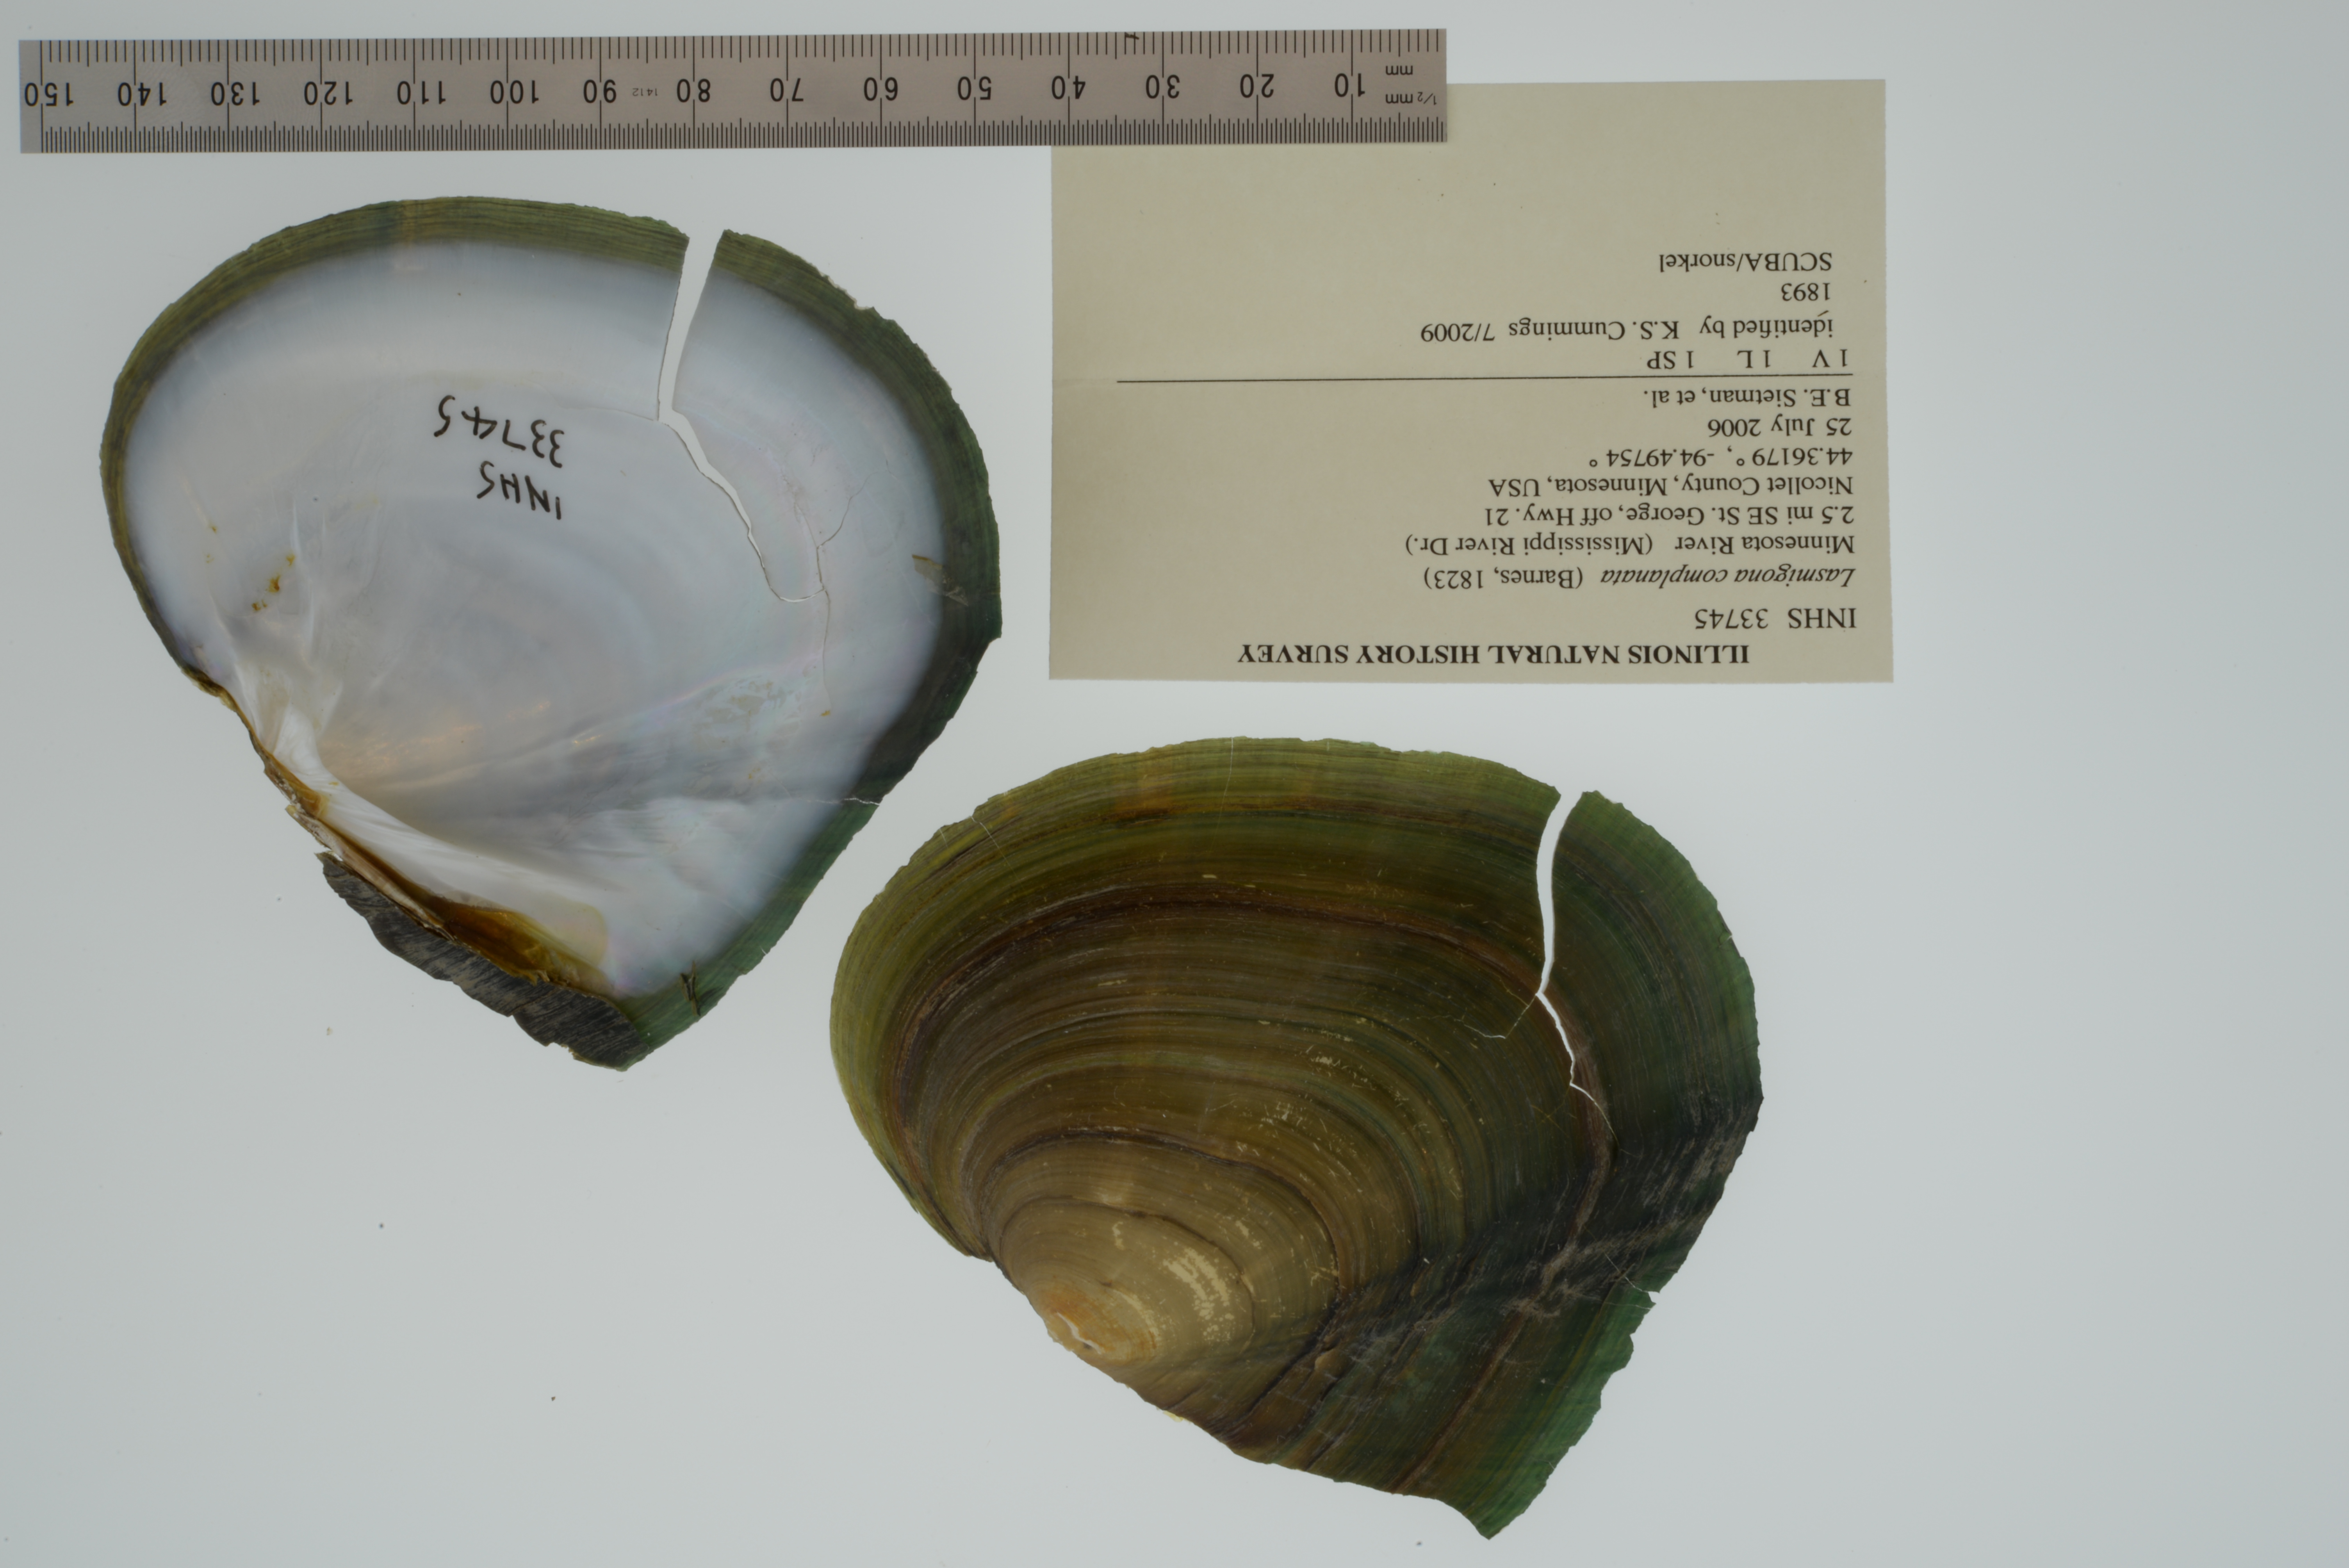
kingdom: Animalia
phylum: Mollusca
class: Bivalvia
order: Unionida
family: Unionidae
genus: Lasmigona
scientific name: Lasmigona complanata
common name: White heelsplitter
